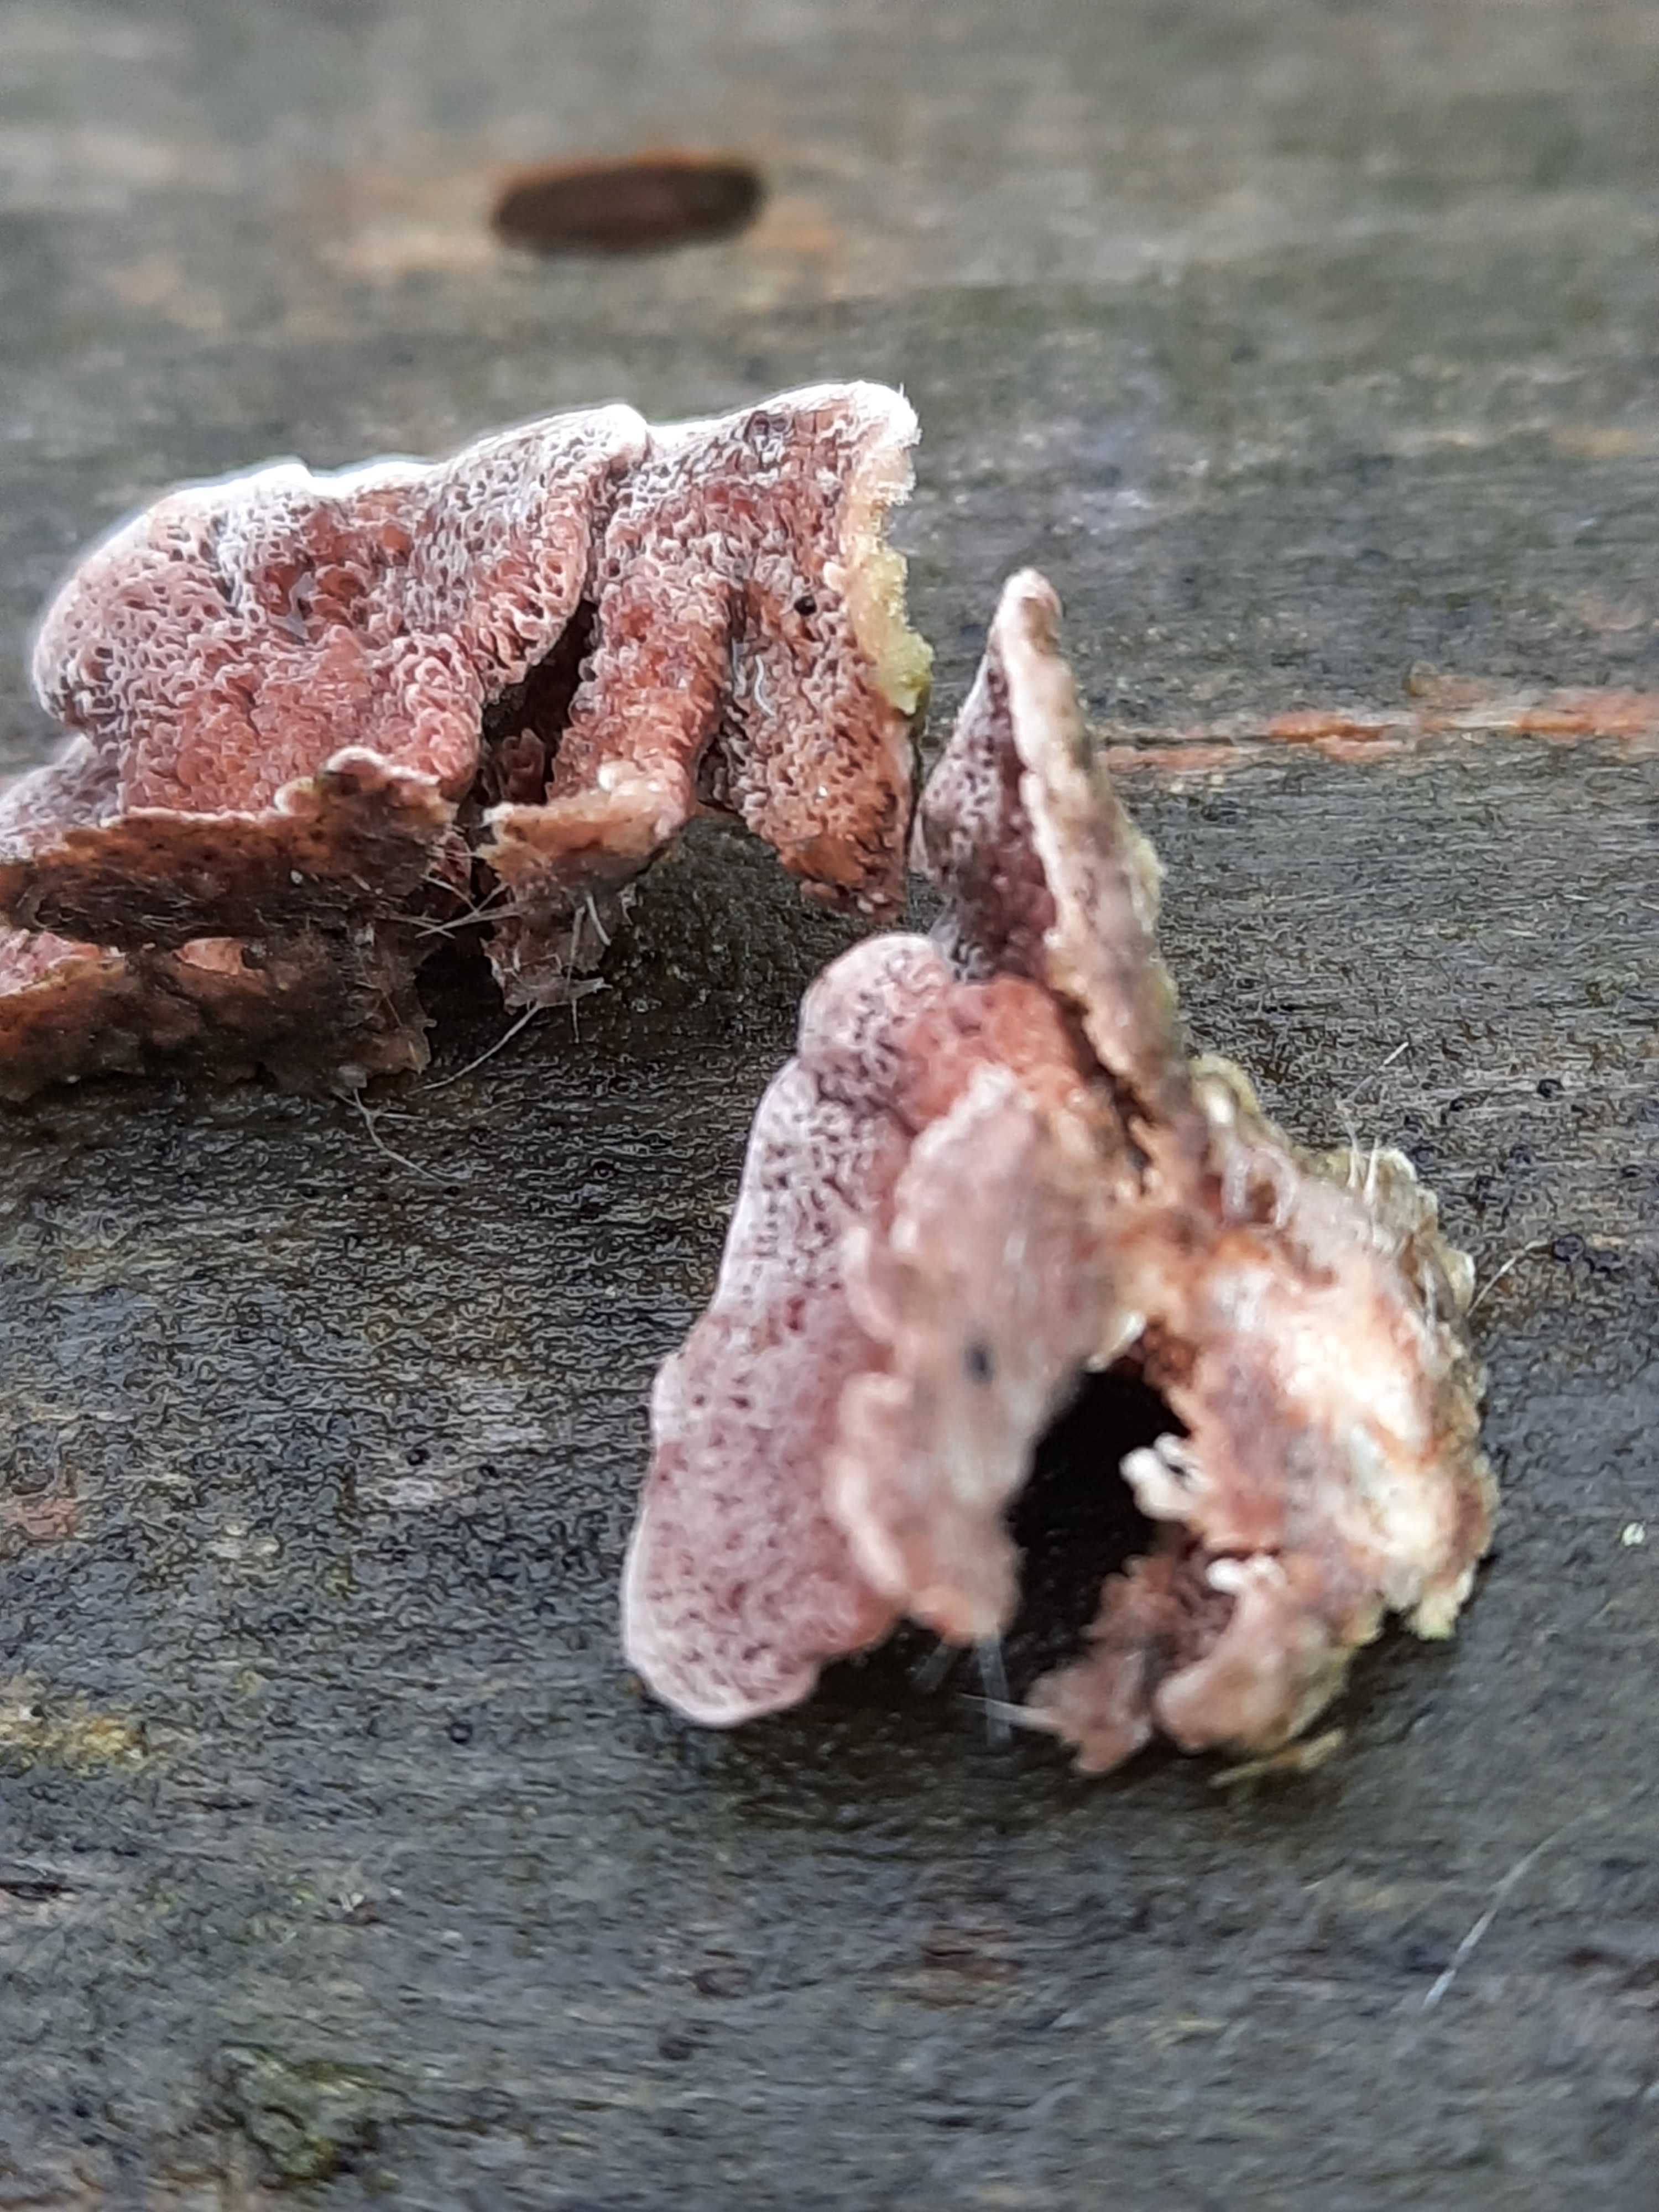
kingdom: Fungi
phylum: Basidiomycota
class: Agaricomycetes
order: Hymenochaetales
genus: Trichaptum
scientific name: Trichaptum abietinum
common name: almindelig violporesvamp
